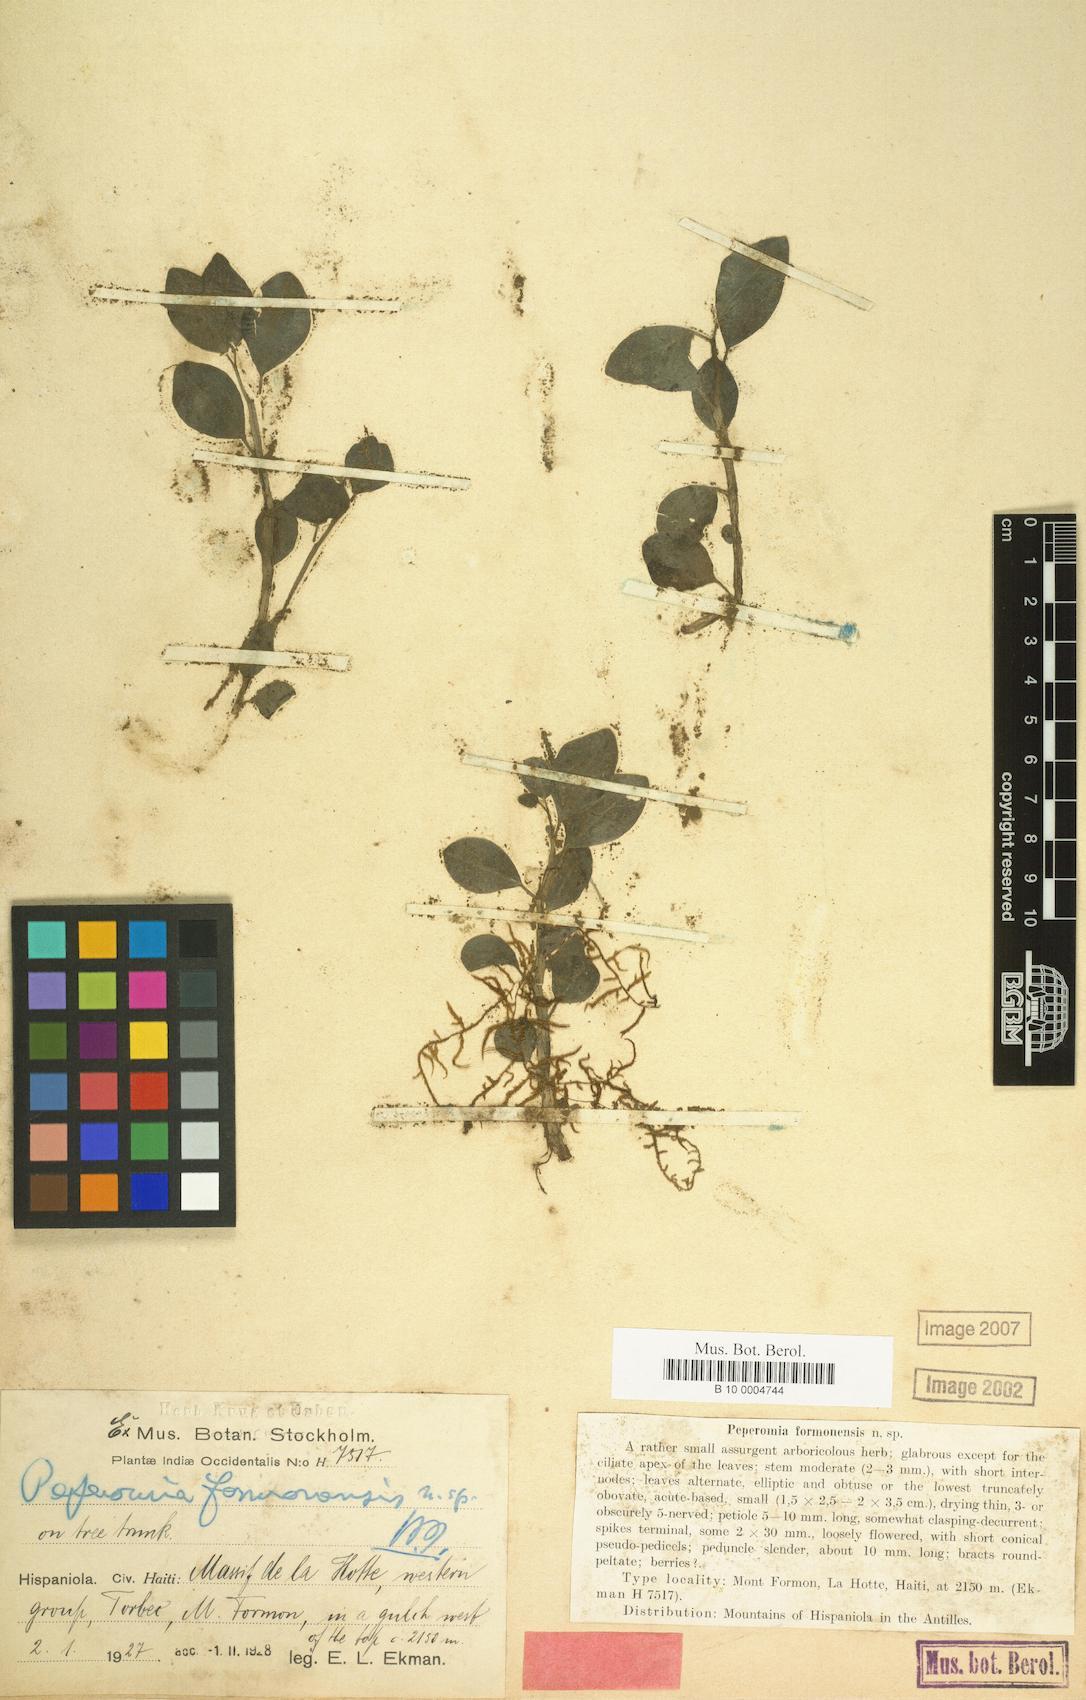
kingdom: Plantae
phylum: Tracheophyta
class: Magnoliopsida
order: Piperales
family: Piperaceae
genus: Peperomia
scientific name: Peperomia obtusifolia
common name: Baby rubberplant
